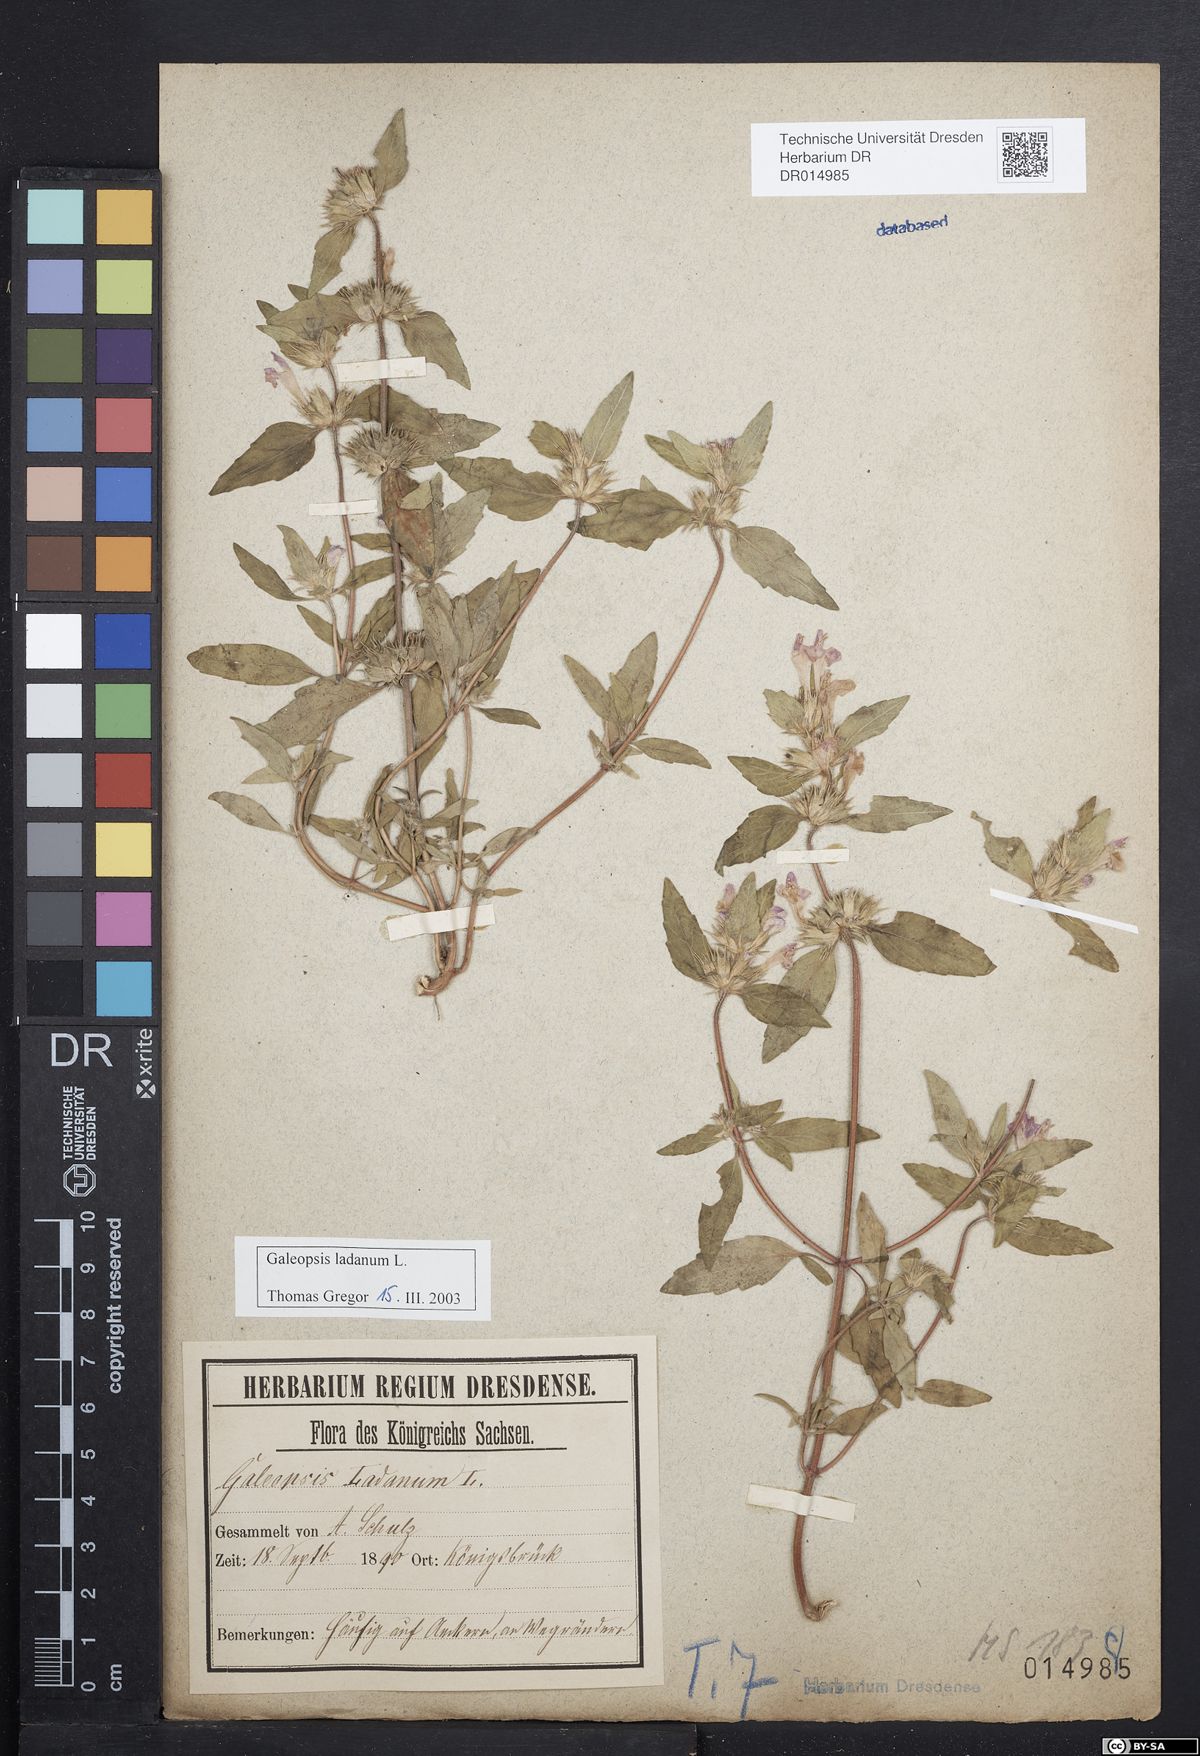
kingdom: Plantae
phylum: Tracheophyta
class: Magnoliopsida
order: Lamiales
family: Lamiaceae
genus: Galeopsis
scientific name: Galeopsis ladanum
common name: Broad-leaved hemp-nettle
